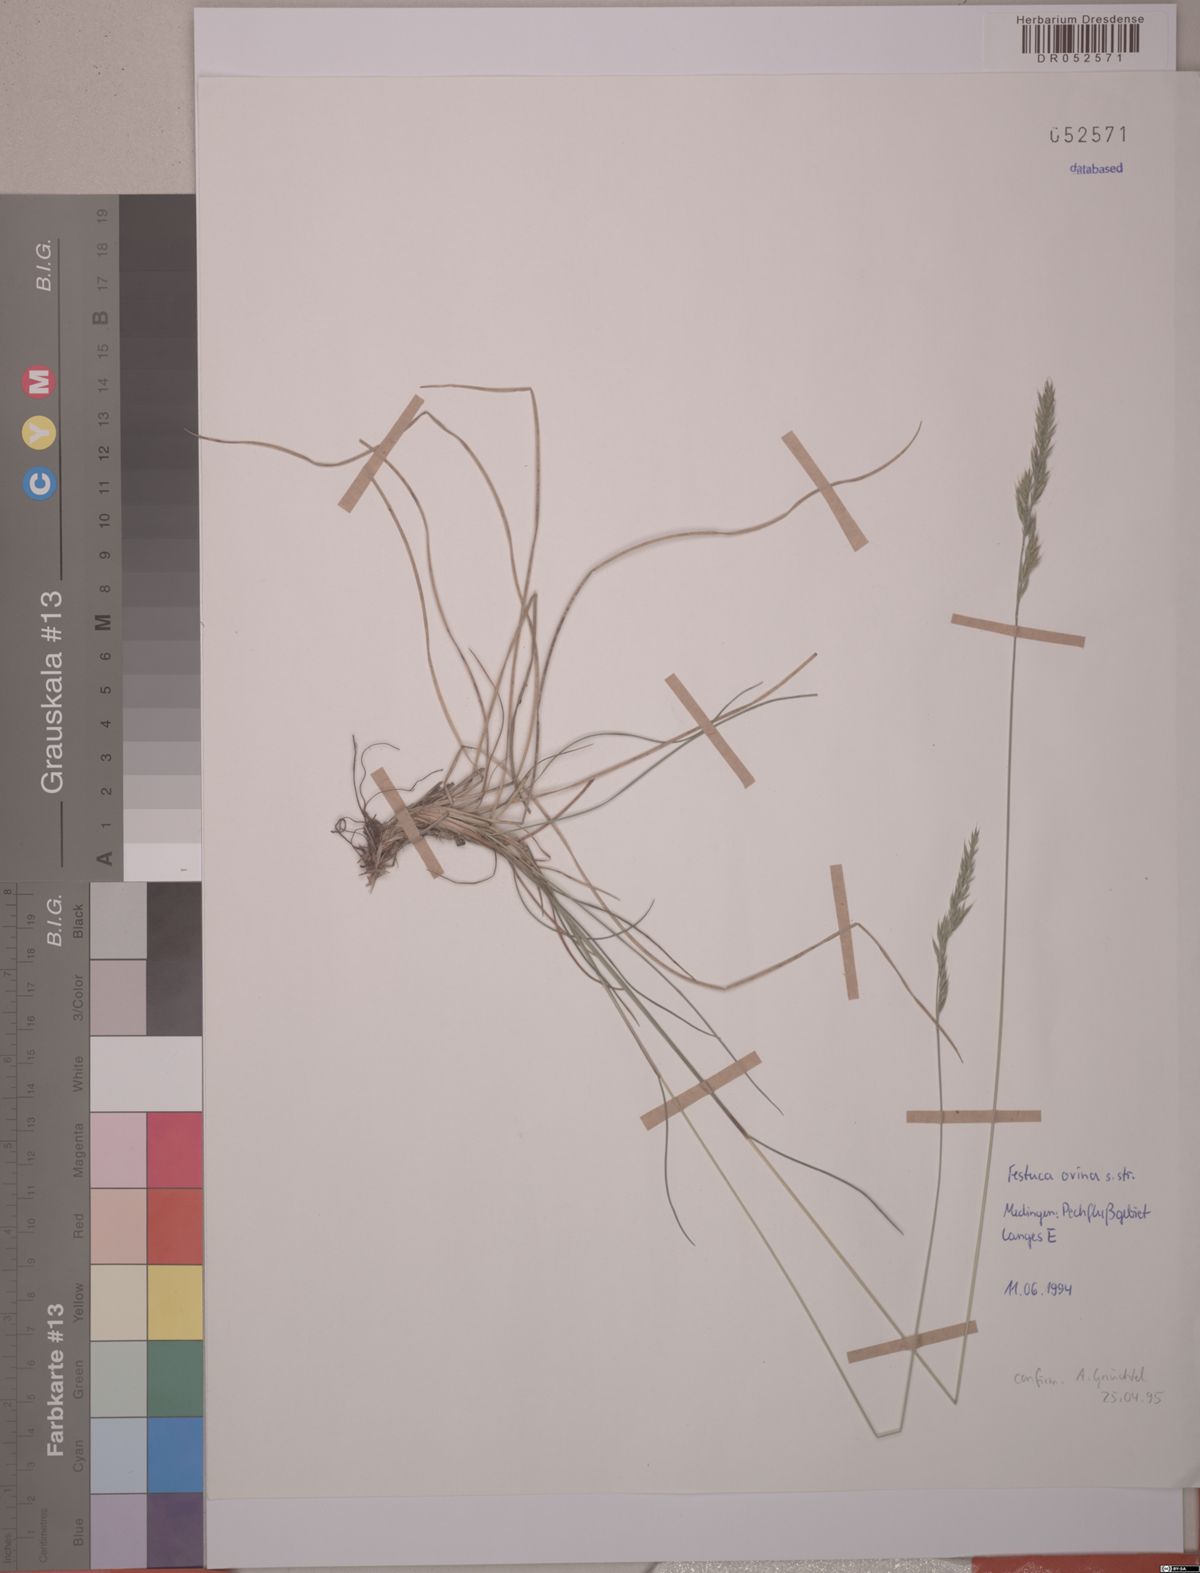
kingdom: Plantae
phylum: Tracheophyta
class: Liliopsida
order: Poales
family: Poaceae
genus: Festuca
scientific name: Festuca ovina
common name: Sheep fescue
